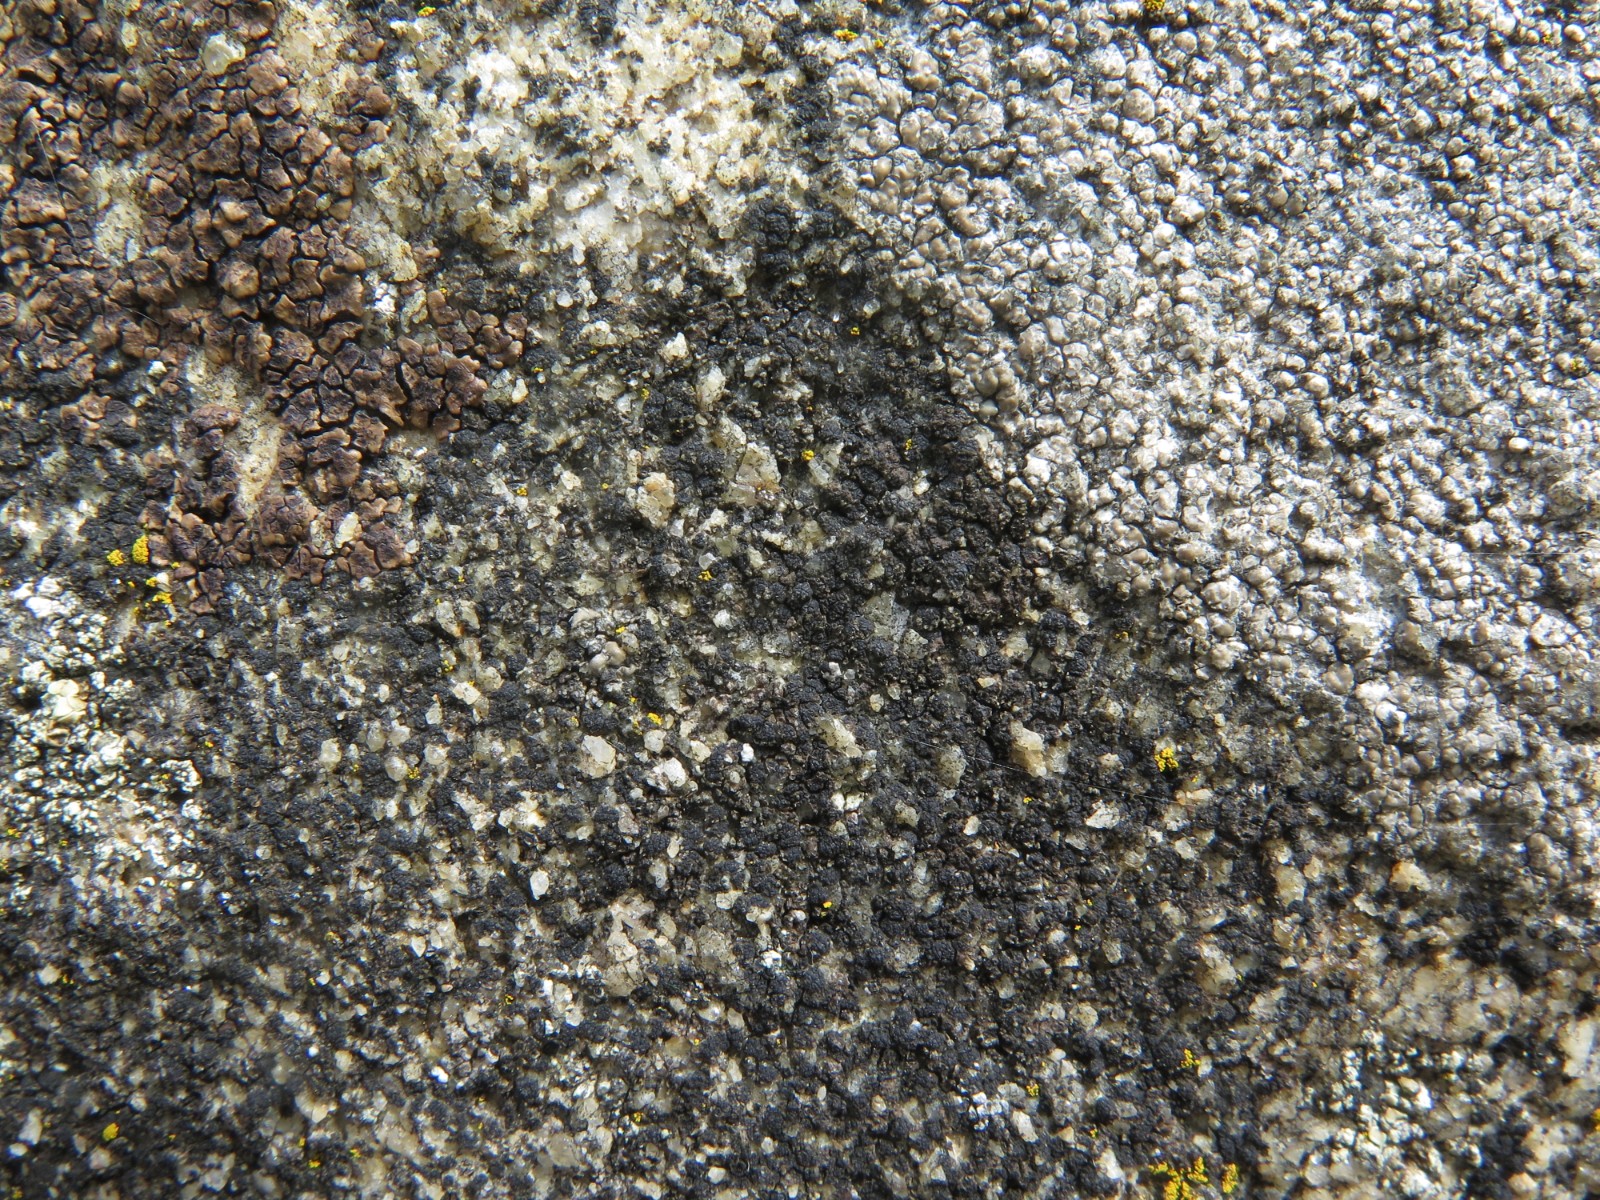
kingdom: Fungi
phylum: Ascomycota
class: Lecanoromycetes
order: Acarosporales
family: Acarosporaceae
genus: Acarospora
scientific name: Acarospora privigna
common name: sort foldekantlav
